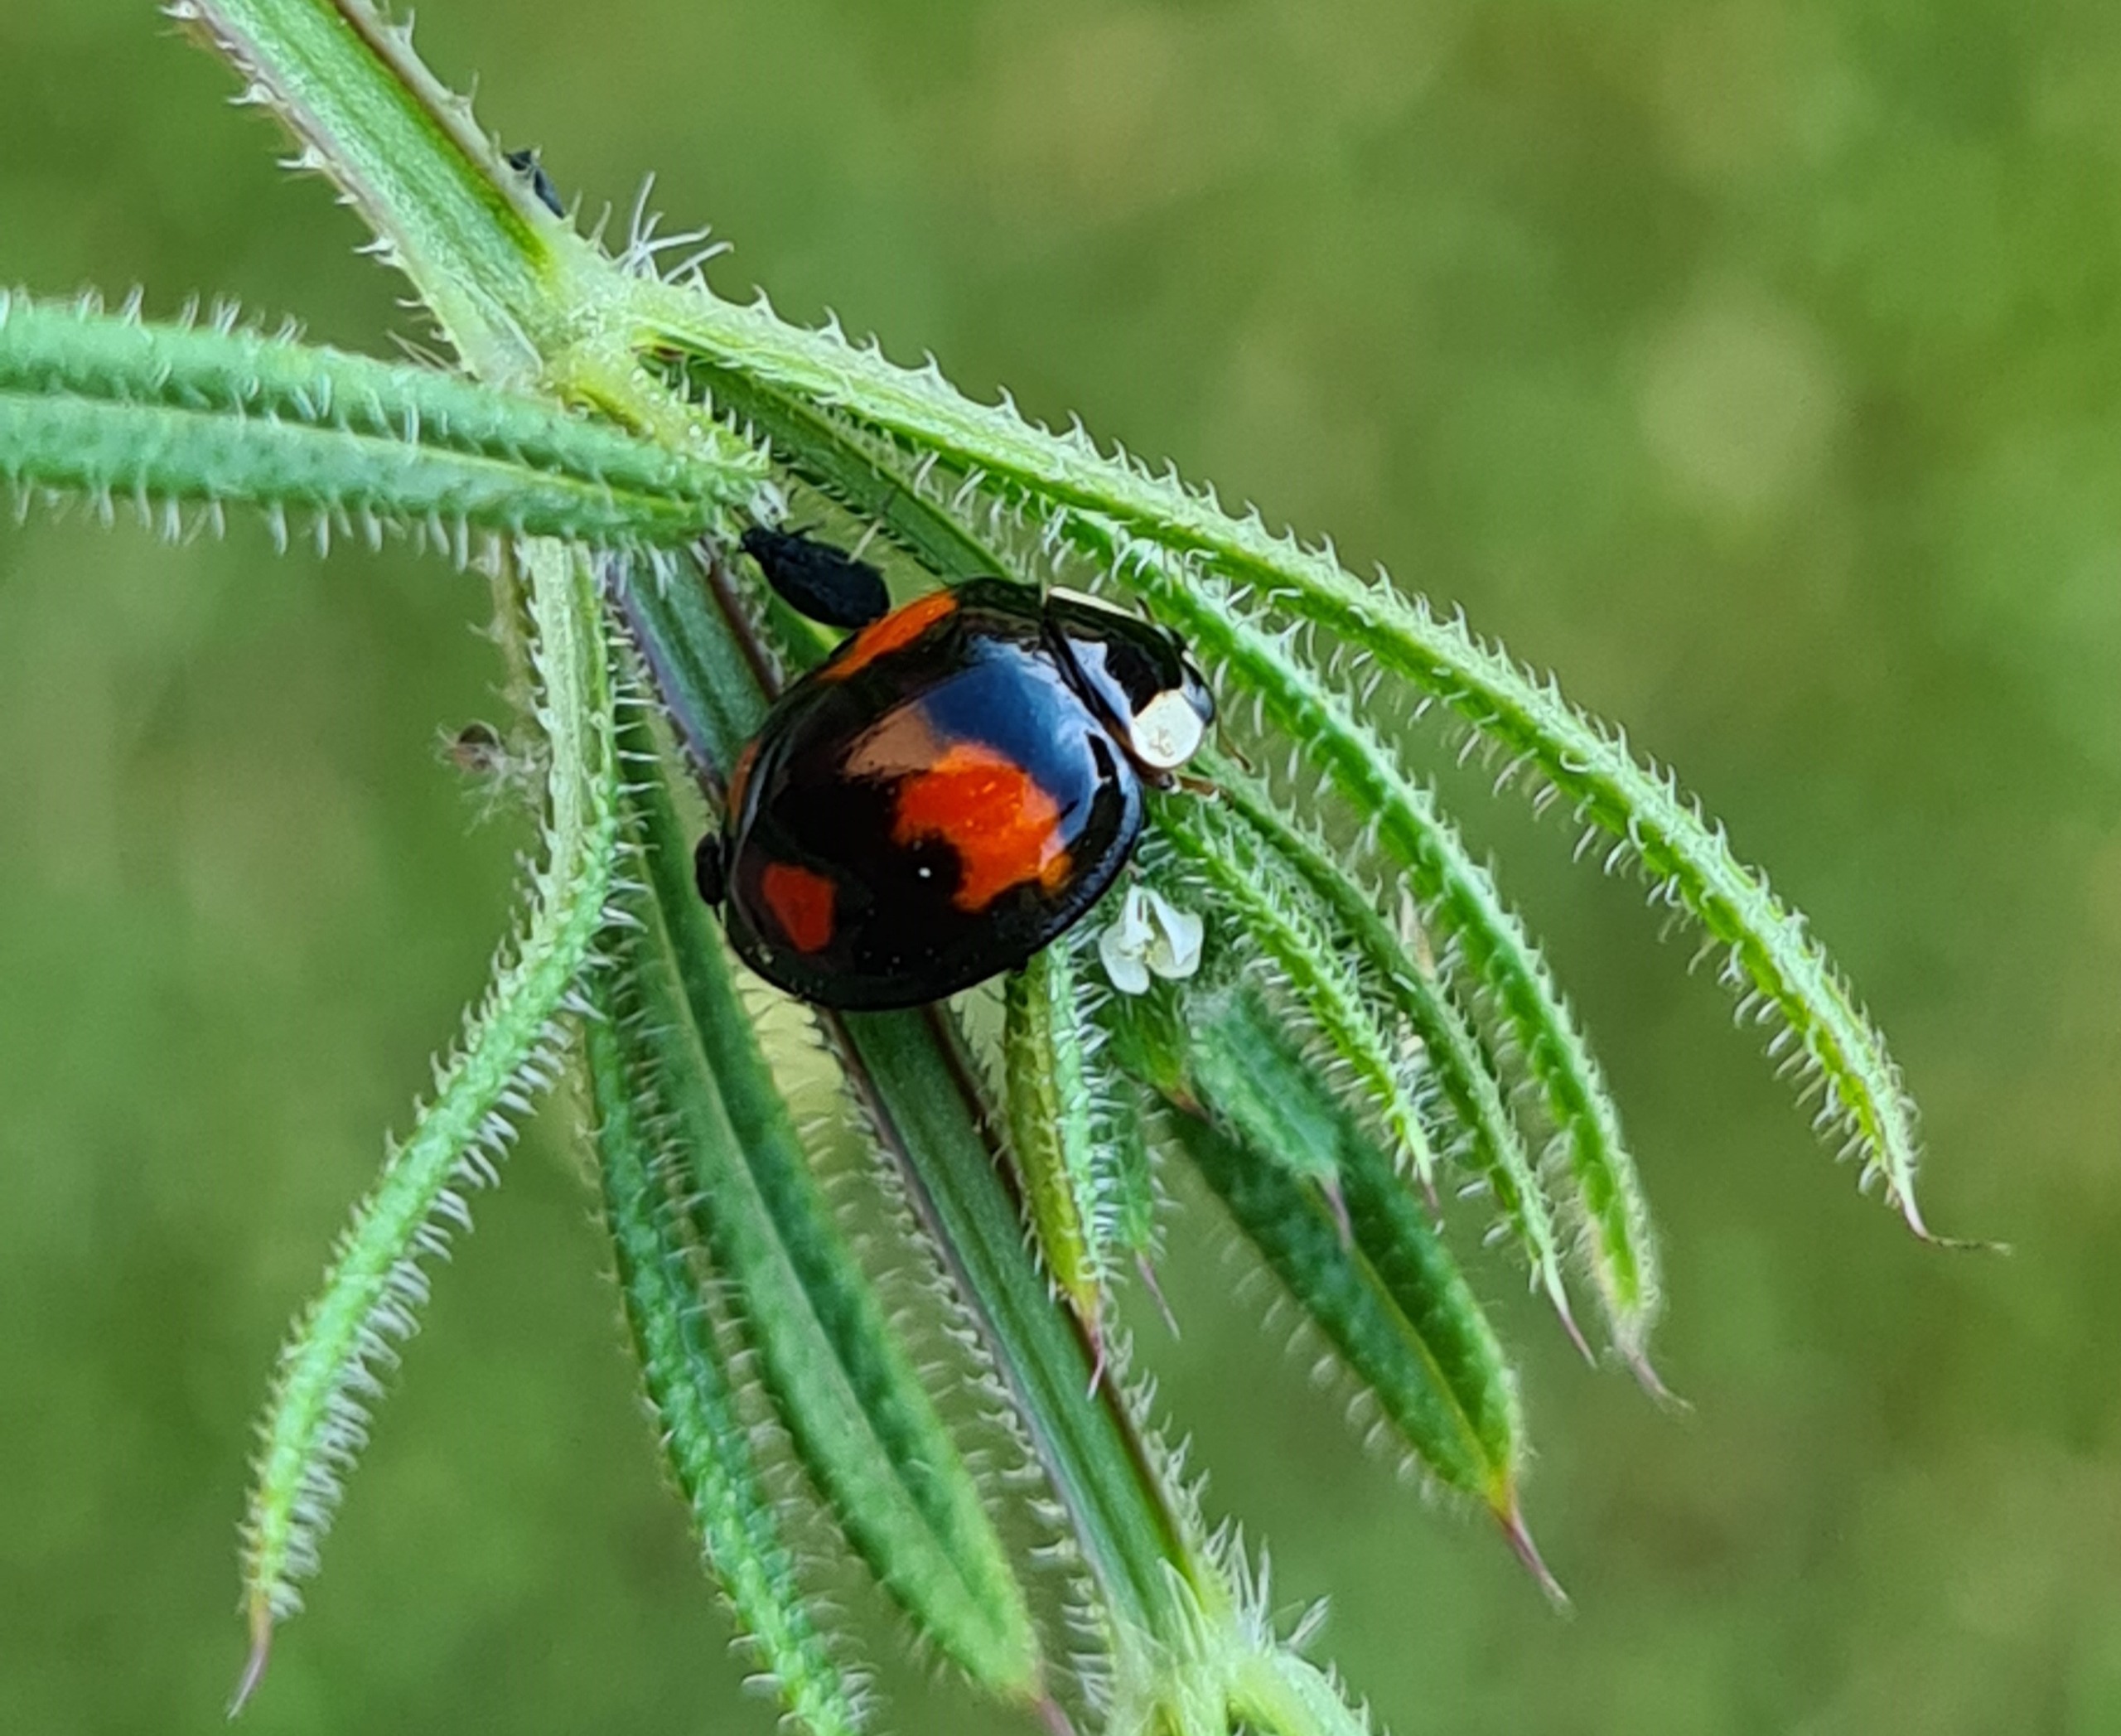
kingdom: Animalia
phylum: Arthropoda
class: Insecta
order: Coleoptera
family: Coccinellidae
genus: Harmonia
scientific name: Harmonia axyridis
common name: Harlekinmariehøne
